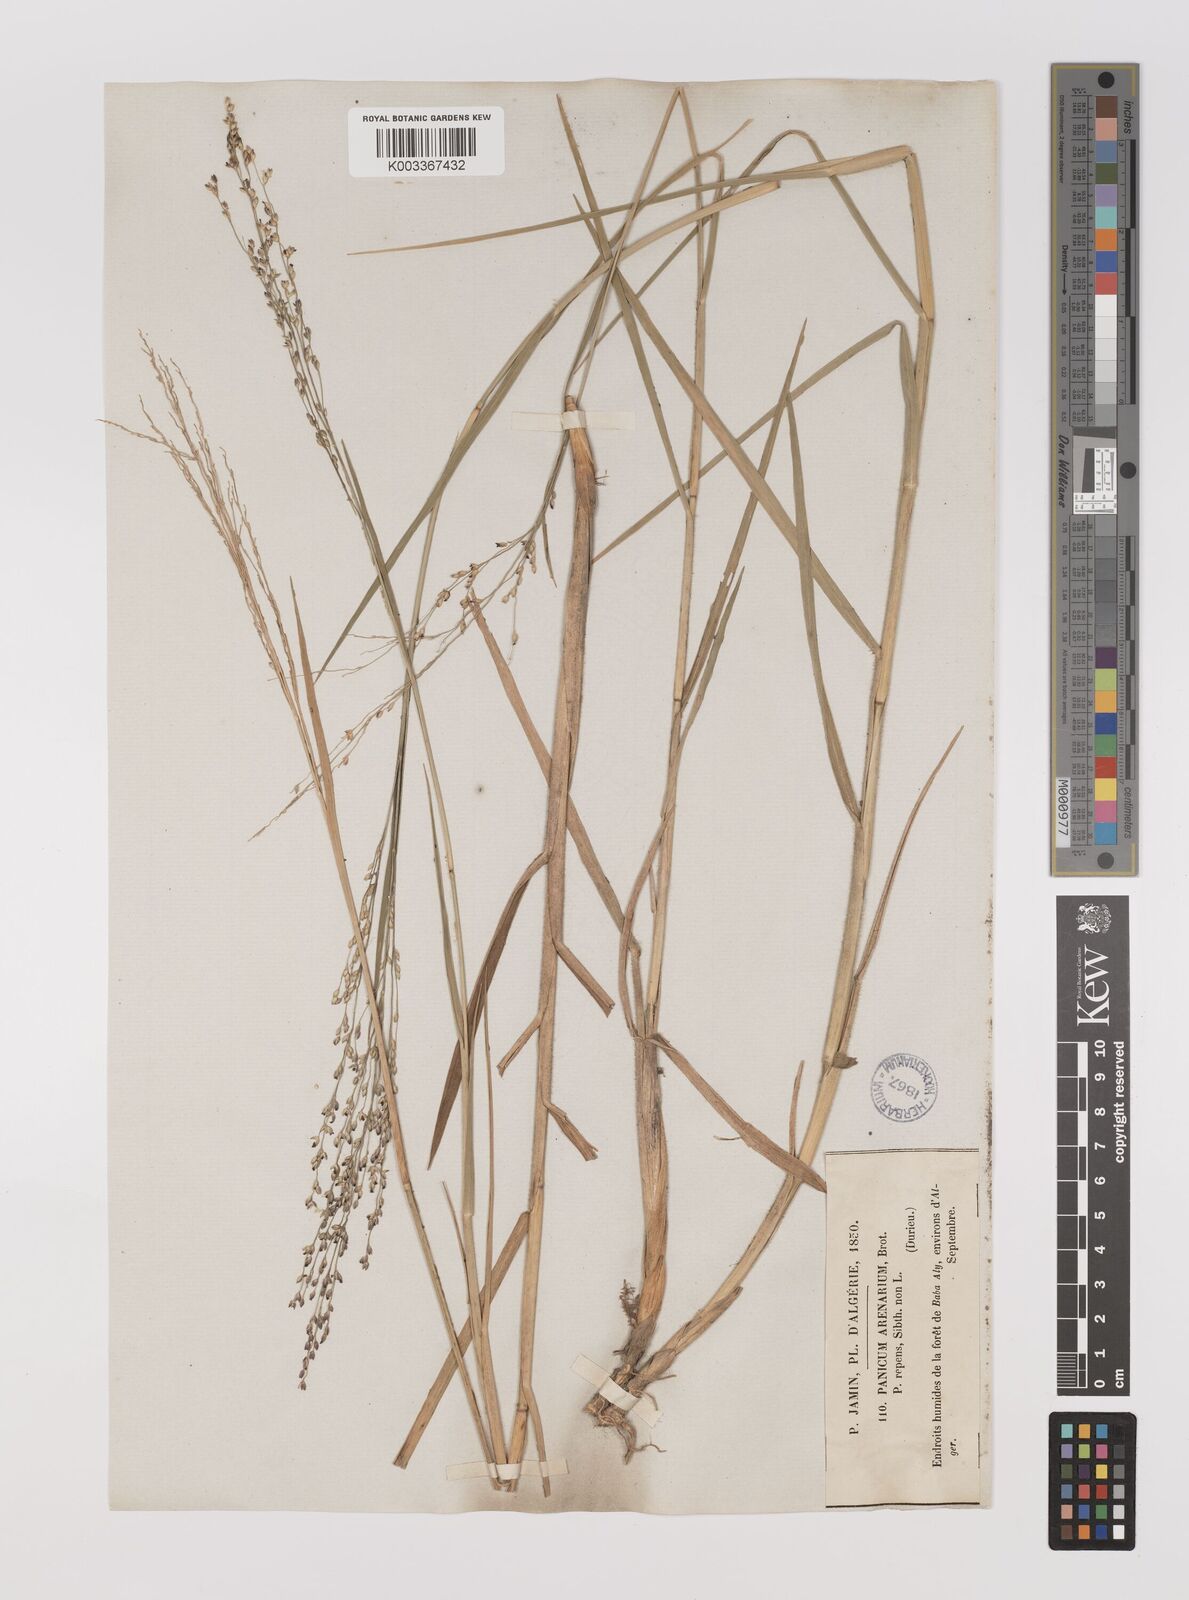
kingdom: Plantae
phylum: Tracheophyta
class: Liliopsida
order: Poales
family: Poaceae
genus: Panicum
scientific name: Panicum repens
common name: Torpedo grass
